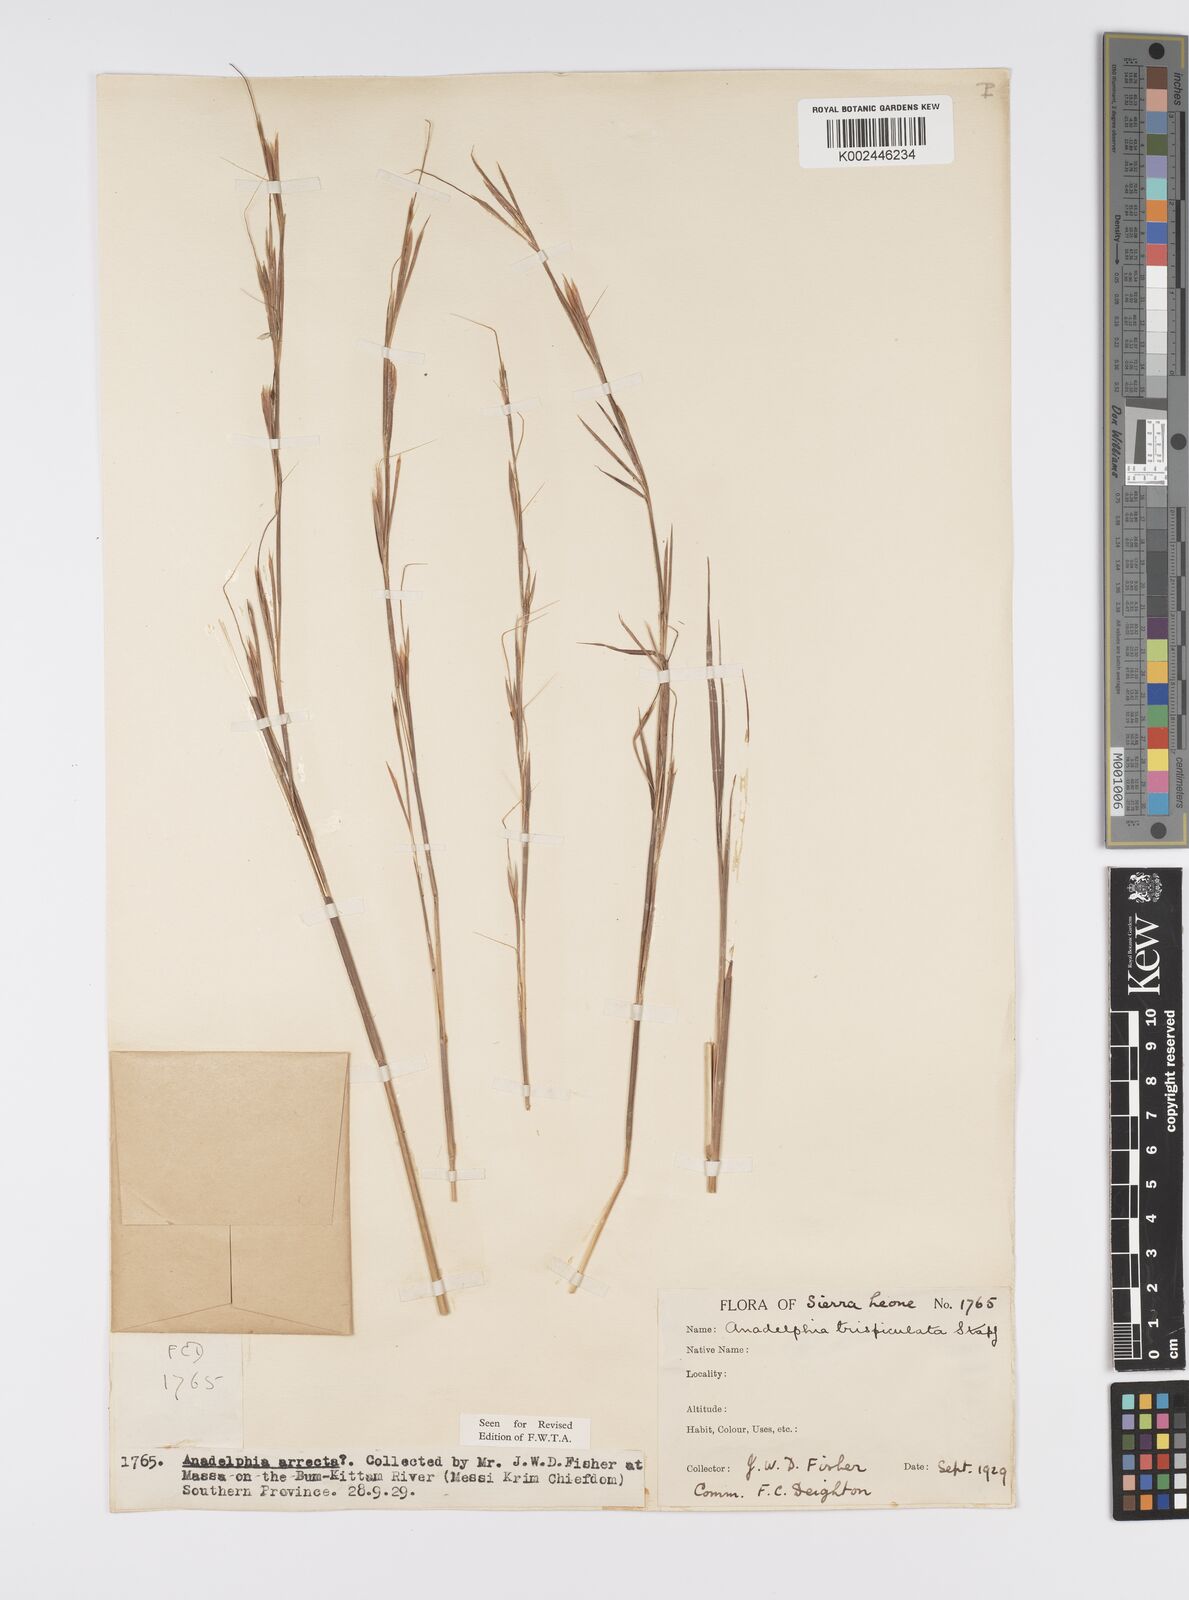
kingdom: Plantae
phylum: Tracheophyta
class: Liliopsida
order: Poales
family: Poaceae
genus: Anadelphia
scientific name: Anadelphia trispiculata
